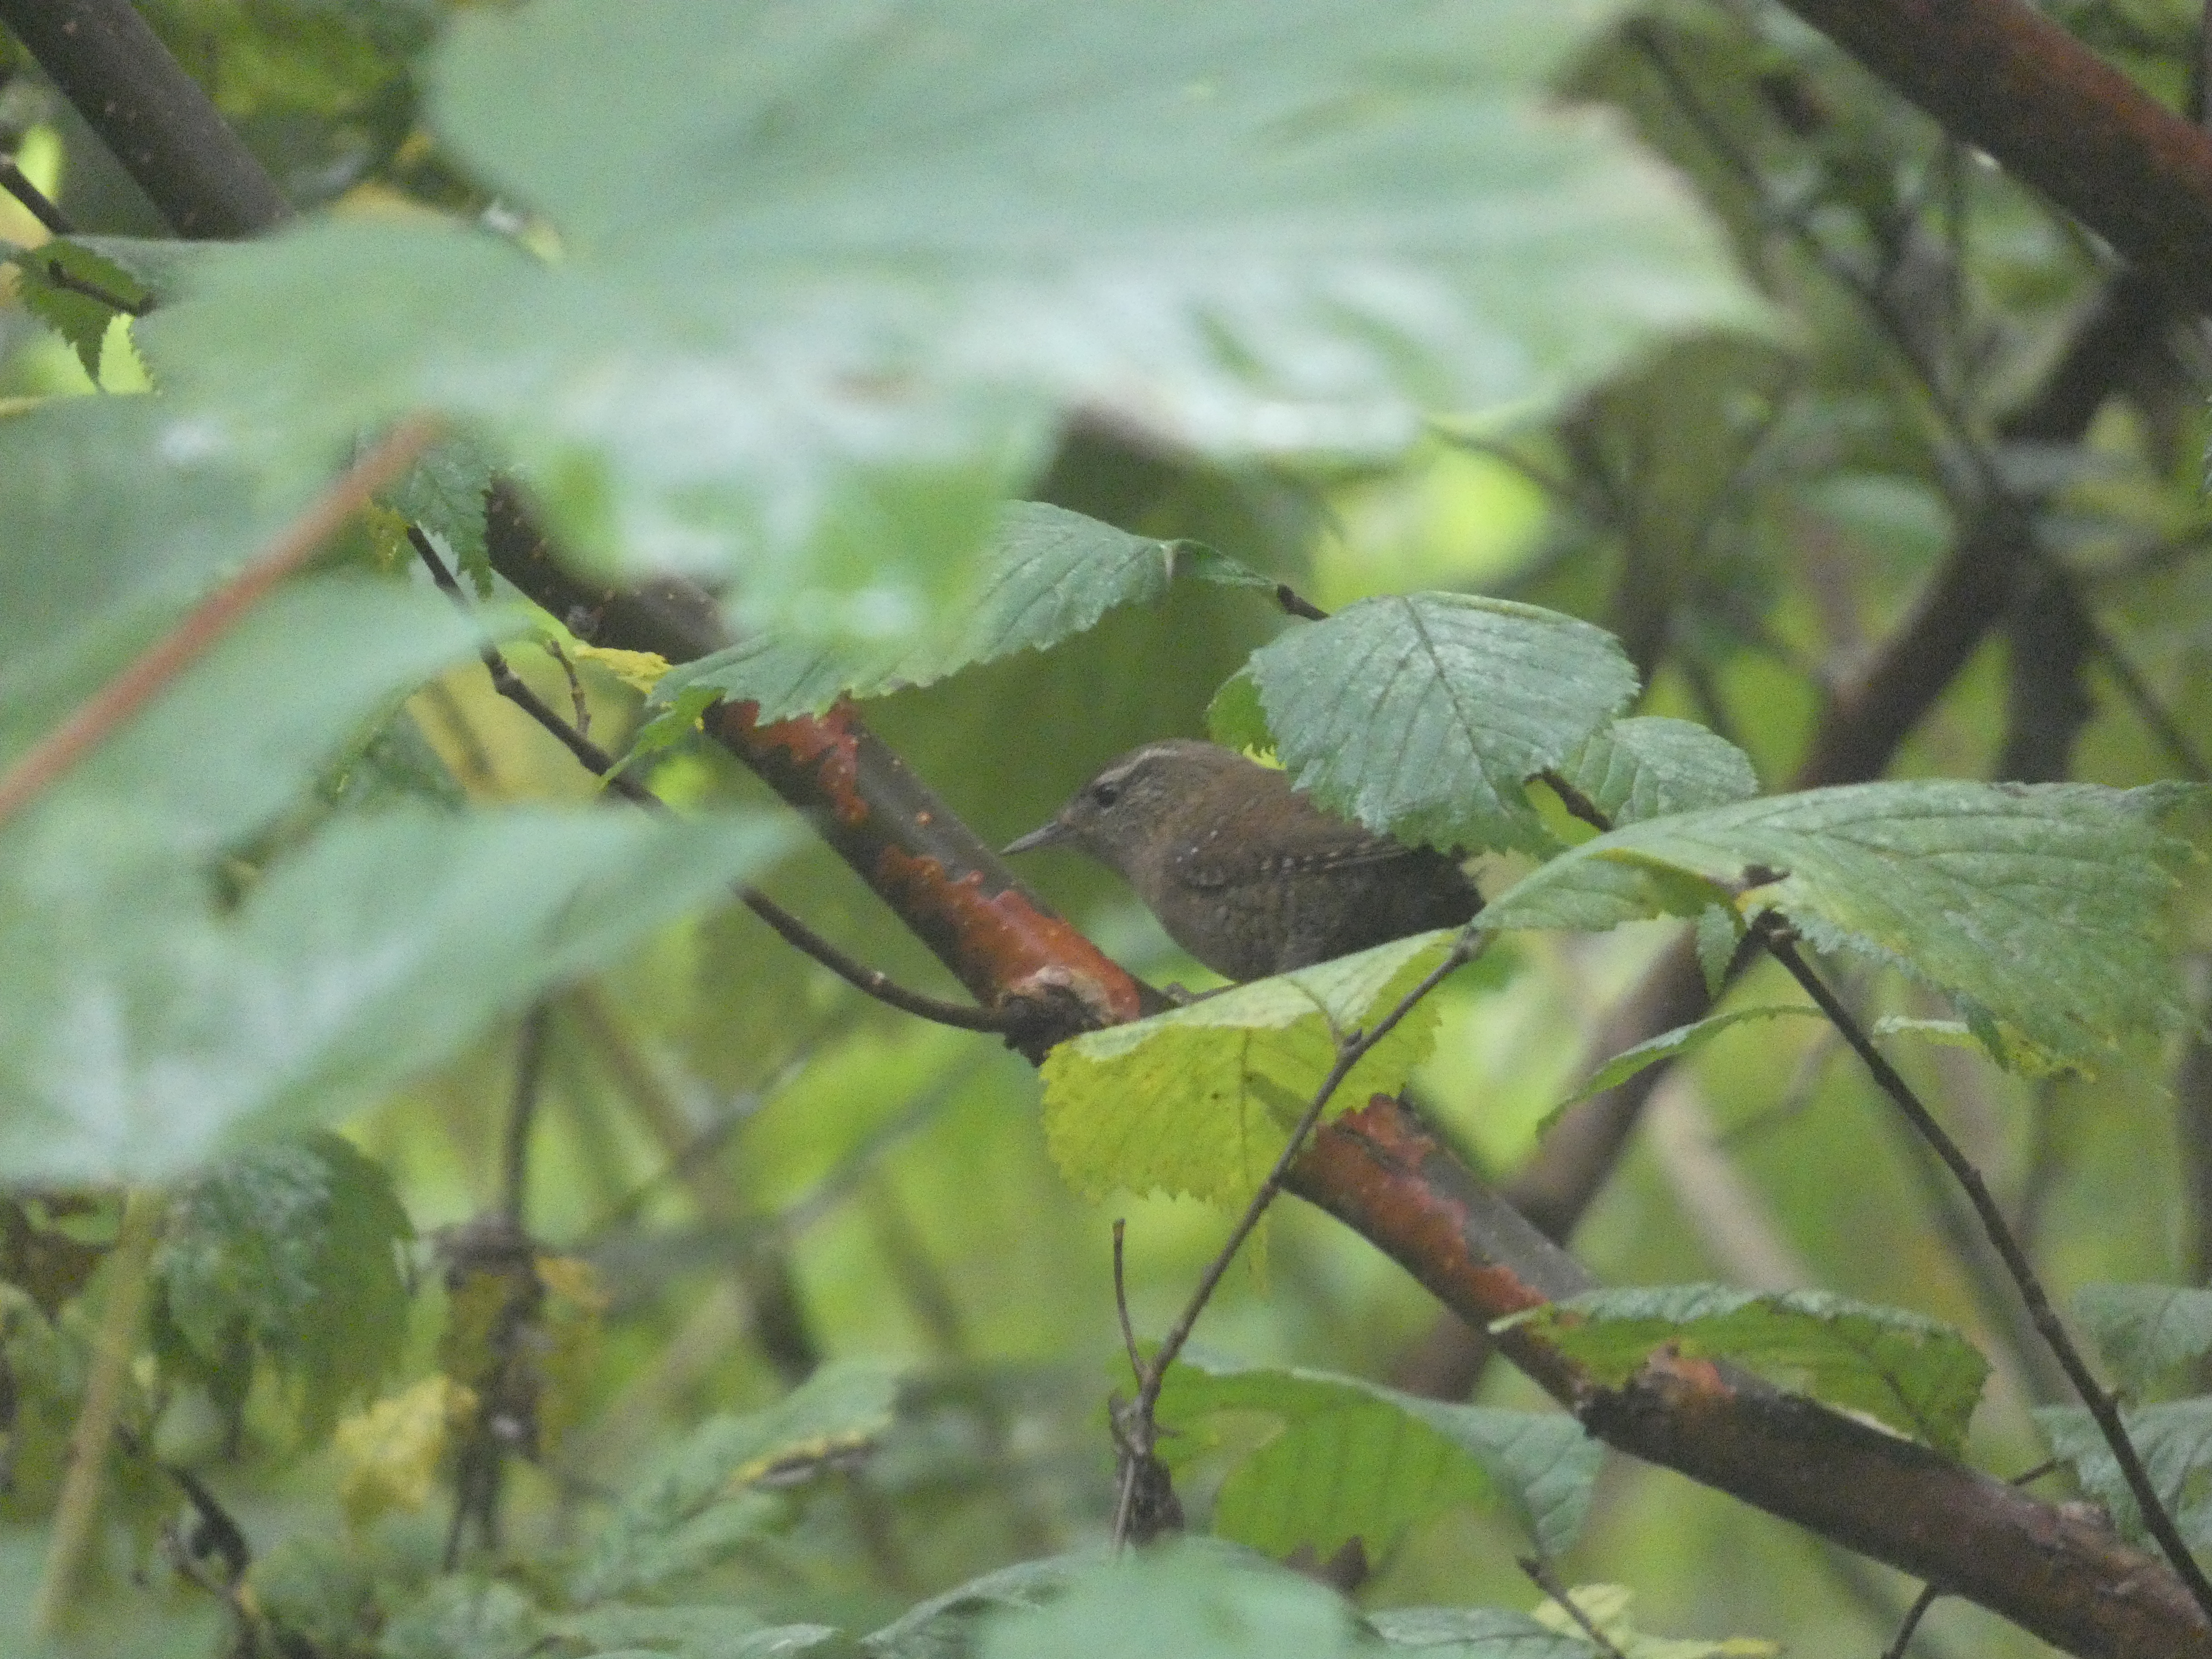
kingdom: Animalia
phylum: Chordata
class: Aves
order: Passeriformes
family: Troglodytidae
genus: Troglodytes
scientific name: Troglodytes troglodytes
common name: Gærdesmutte
